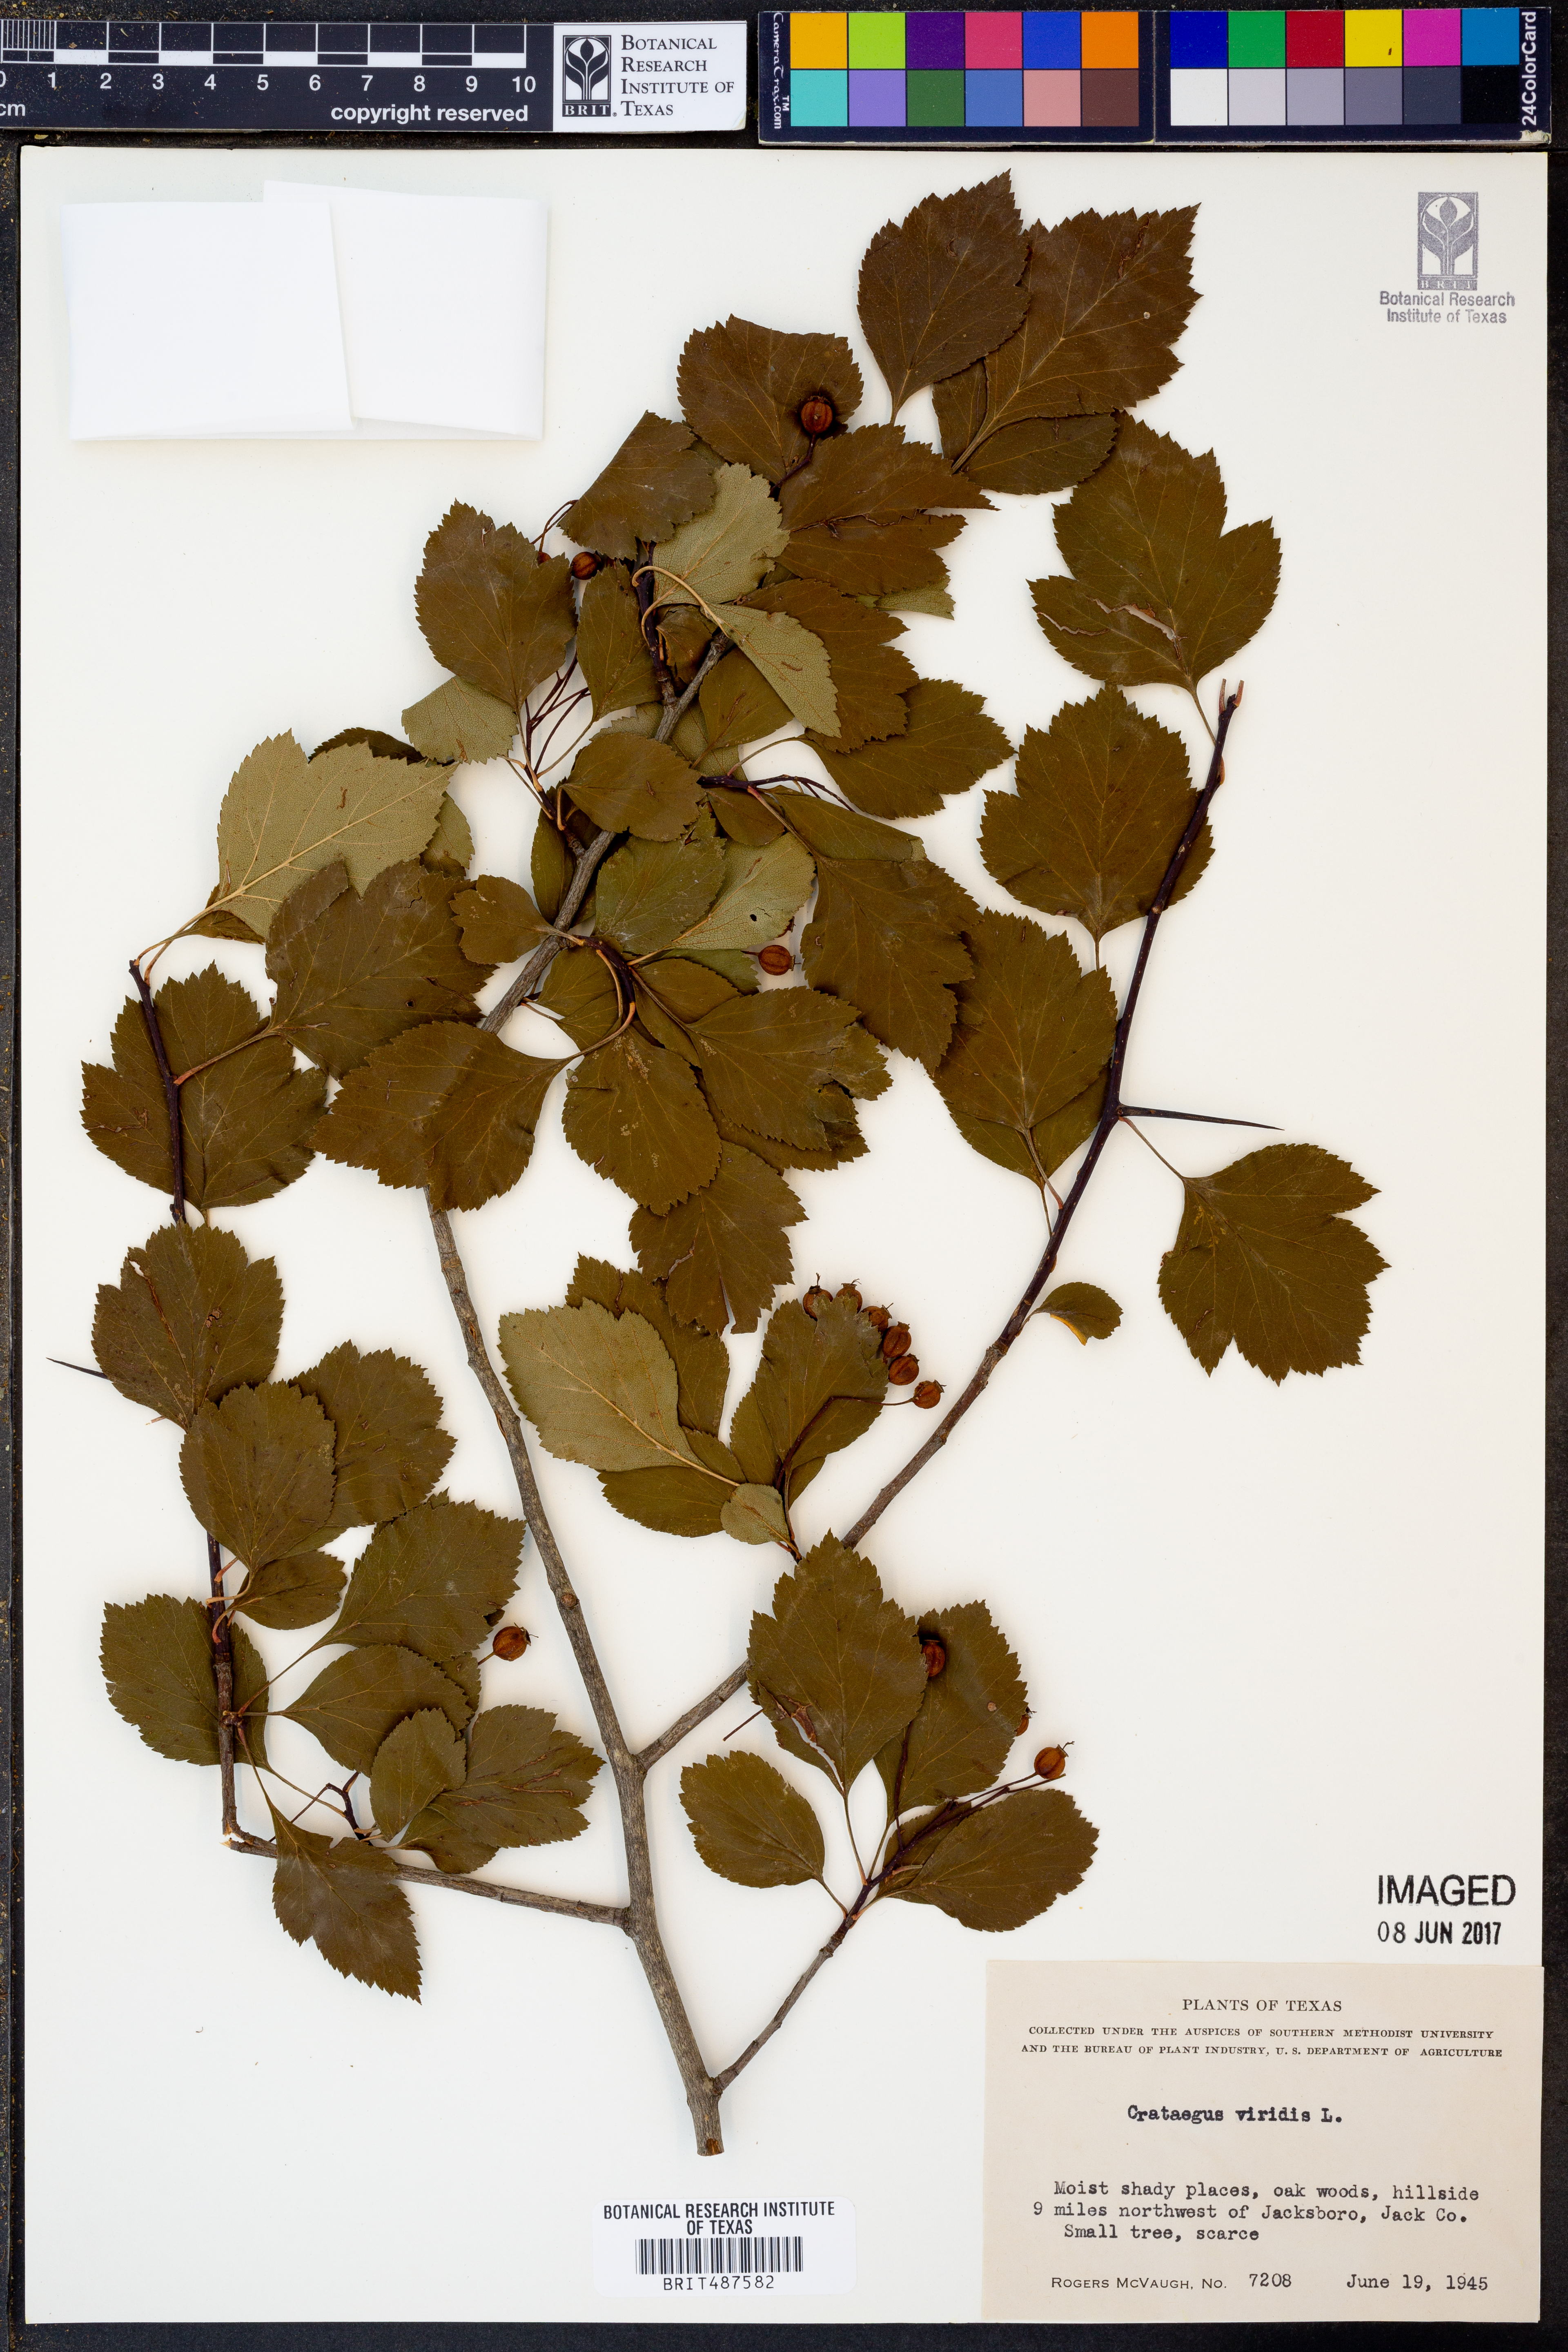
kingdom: Plantae
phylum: Tracheophyta
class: Magnoliopsida
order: Rosales
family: Rosaceae
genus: Crataegus
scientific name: Crataegus viridis
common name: Southernthorn
